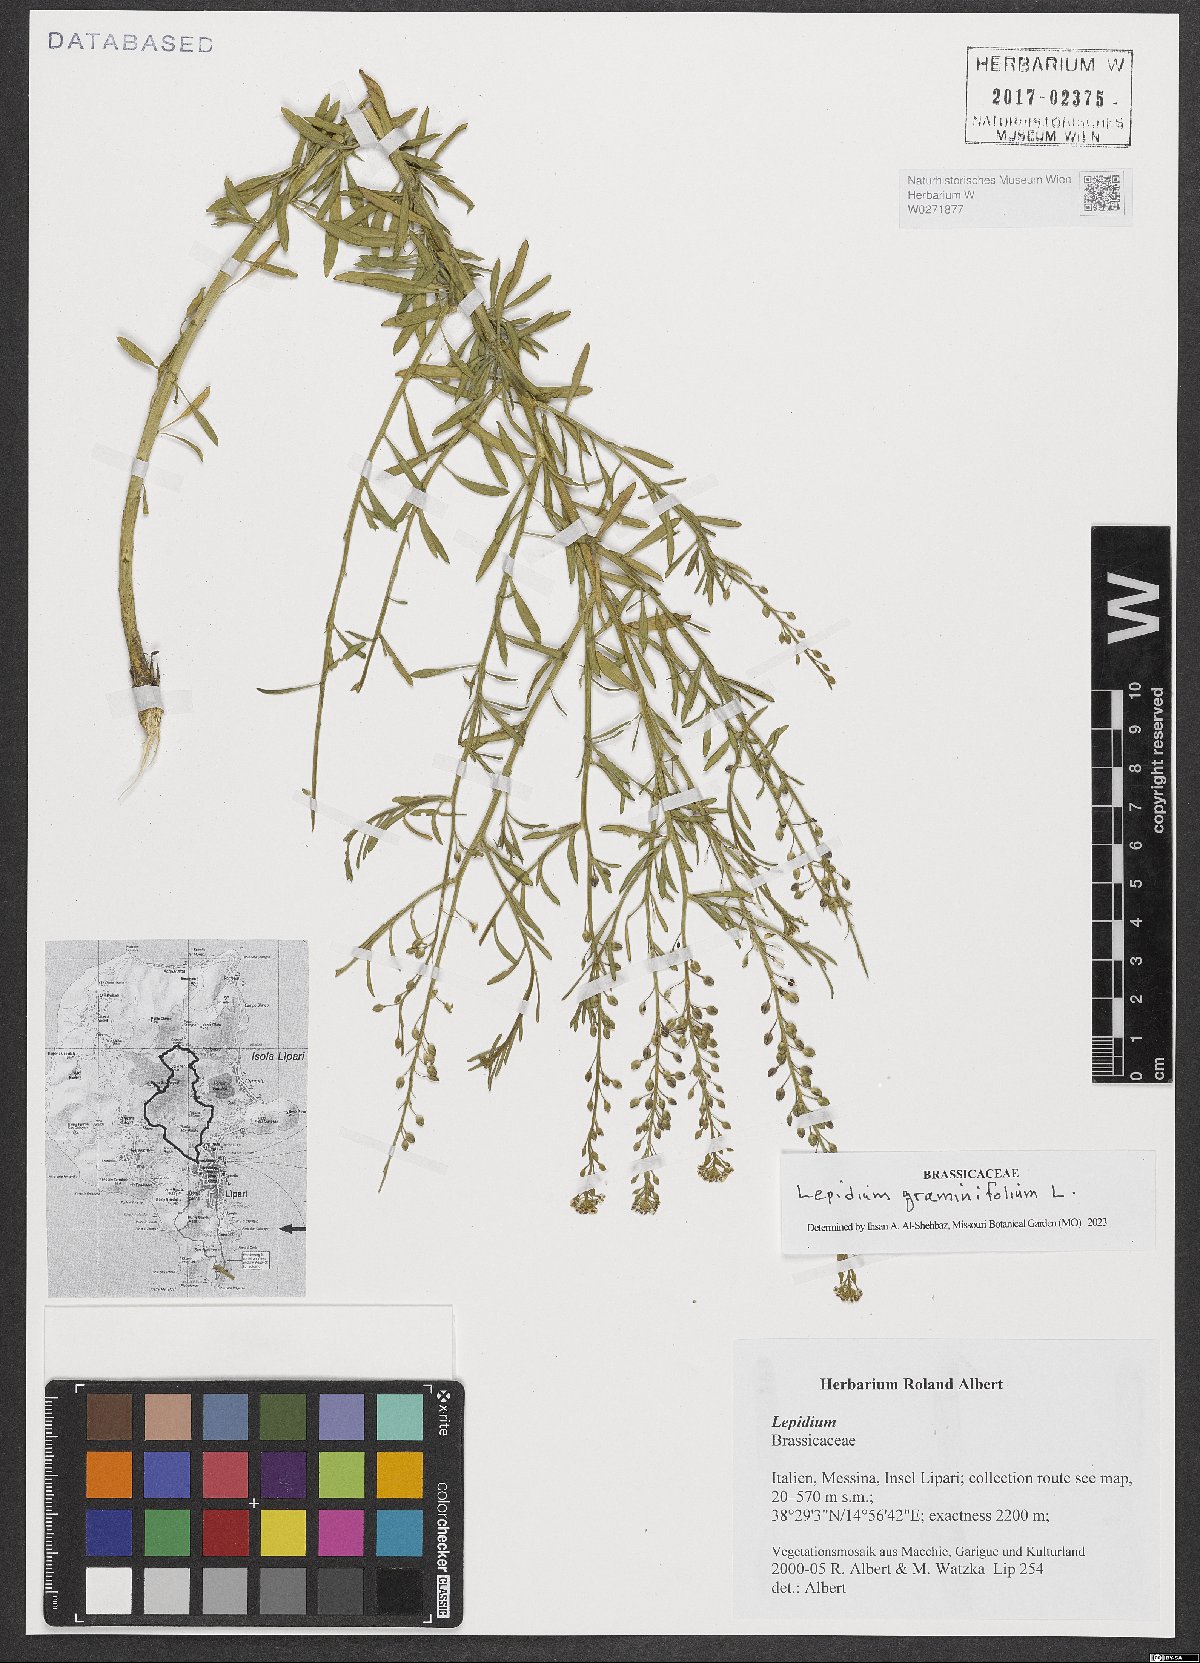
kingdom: Plantae
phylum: Tracheophyta
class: Magnoliopsida
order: Brassicales
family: Brassicaceae
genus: Lepidium
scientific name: Lepidium graminifolium
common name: Tall pepperwort
